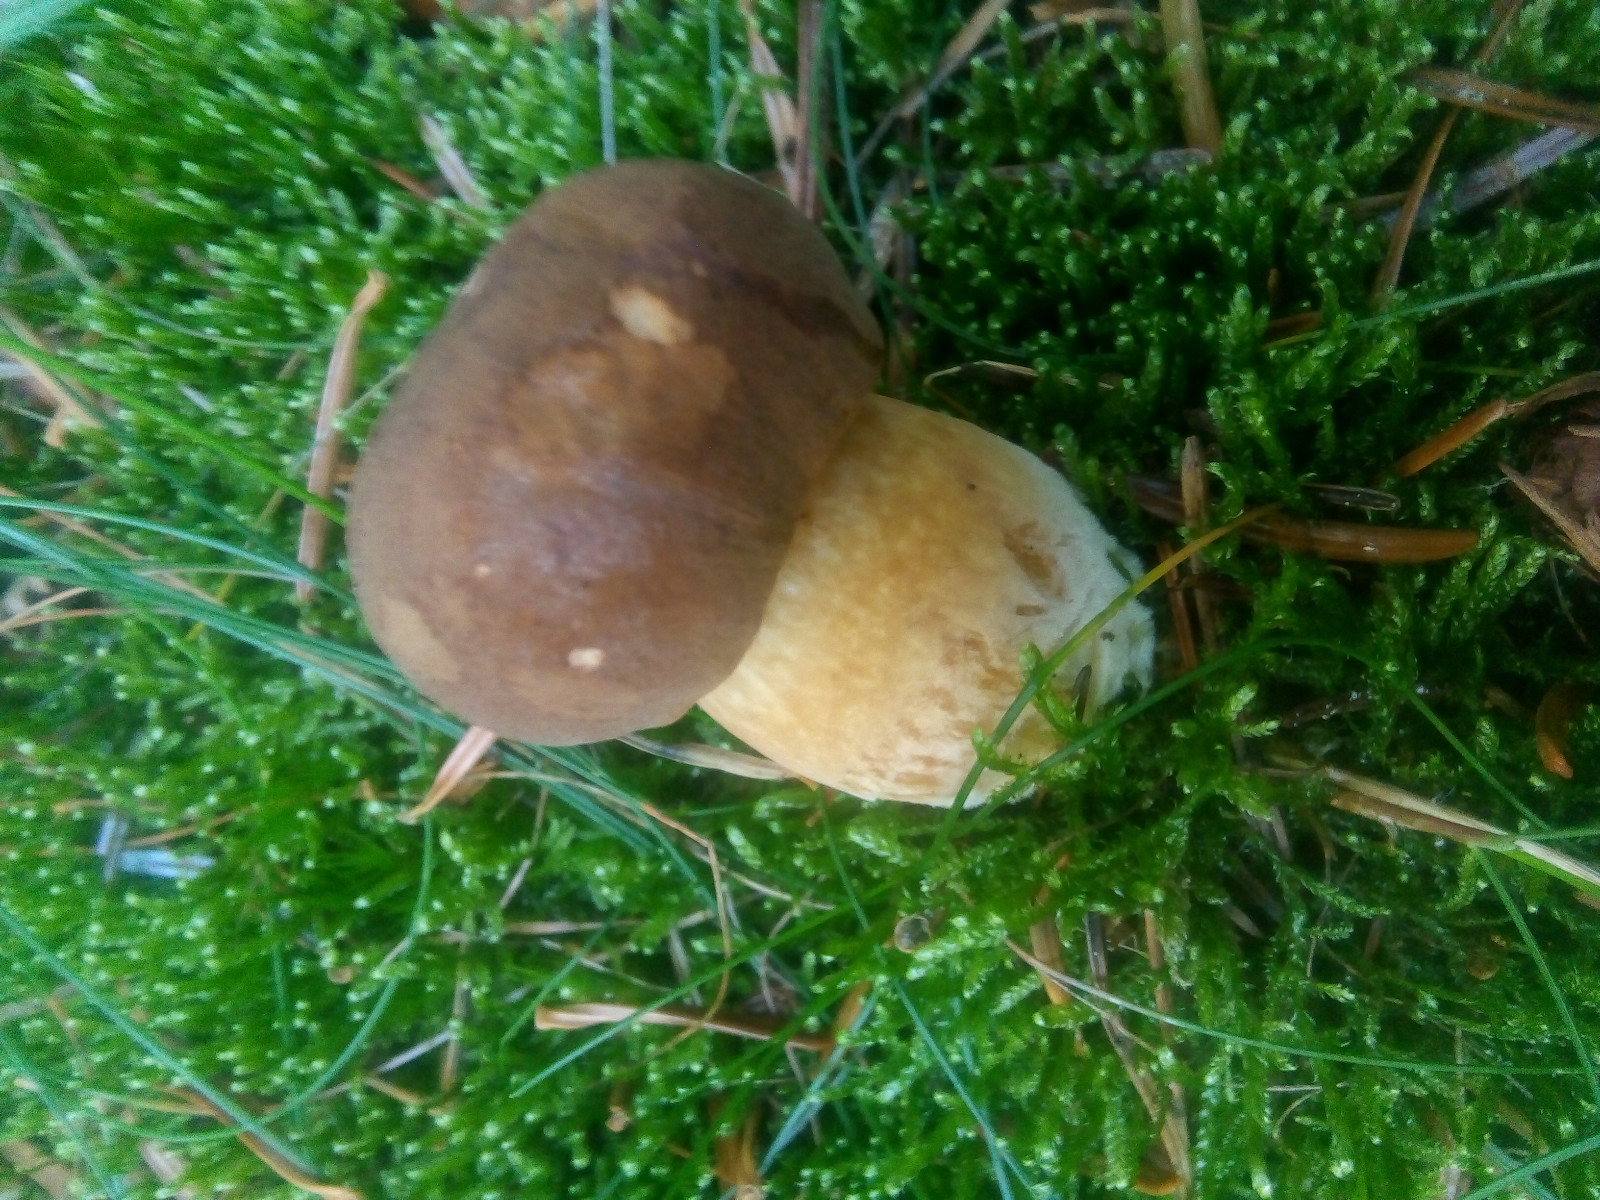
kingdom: Fungi
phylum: Basidiomycota
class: Agaricomycetes
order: Boletales
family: Boletaceae
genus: Imleria
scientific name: Imleria badia
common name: brunstokket rørhat
